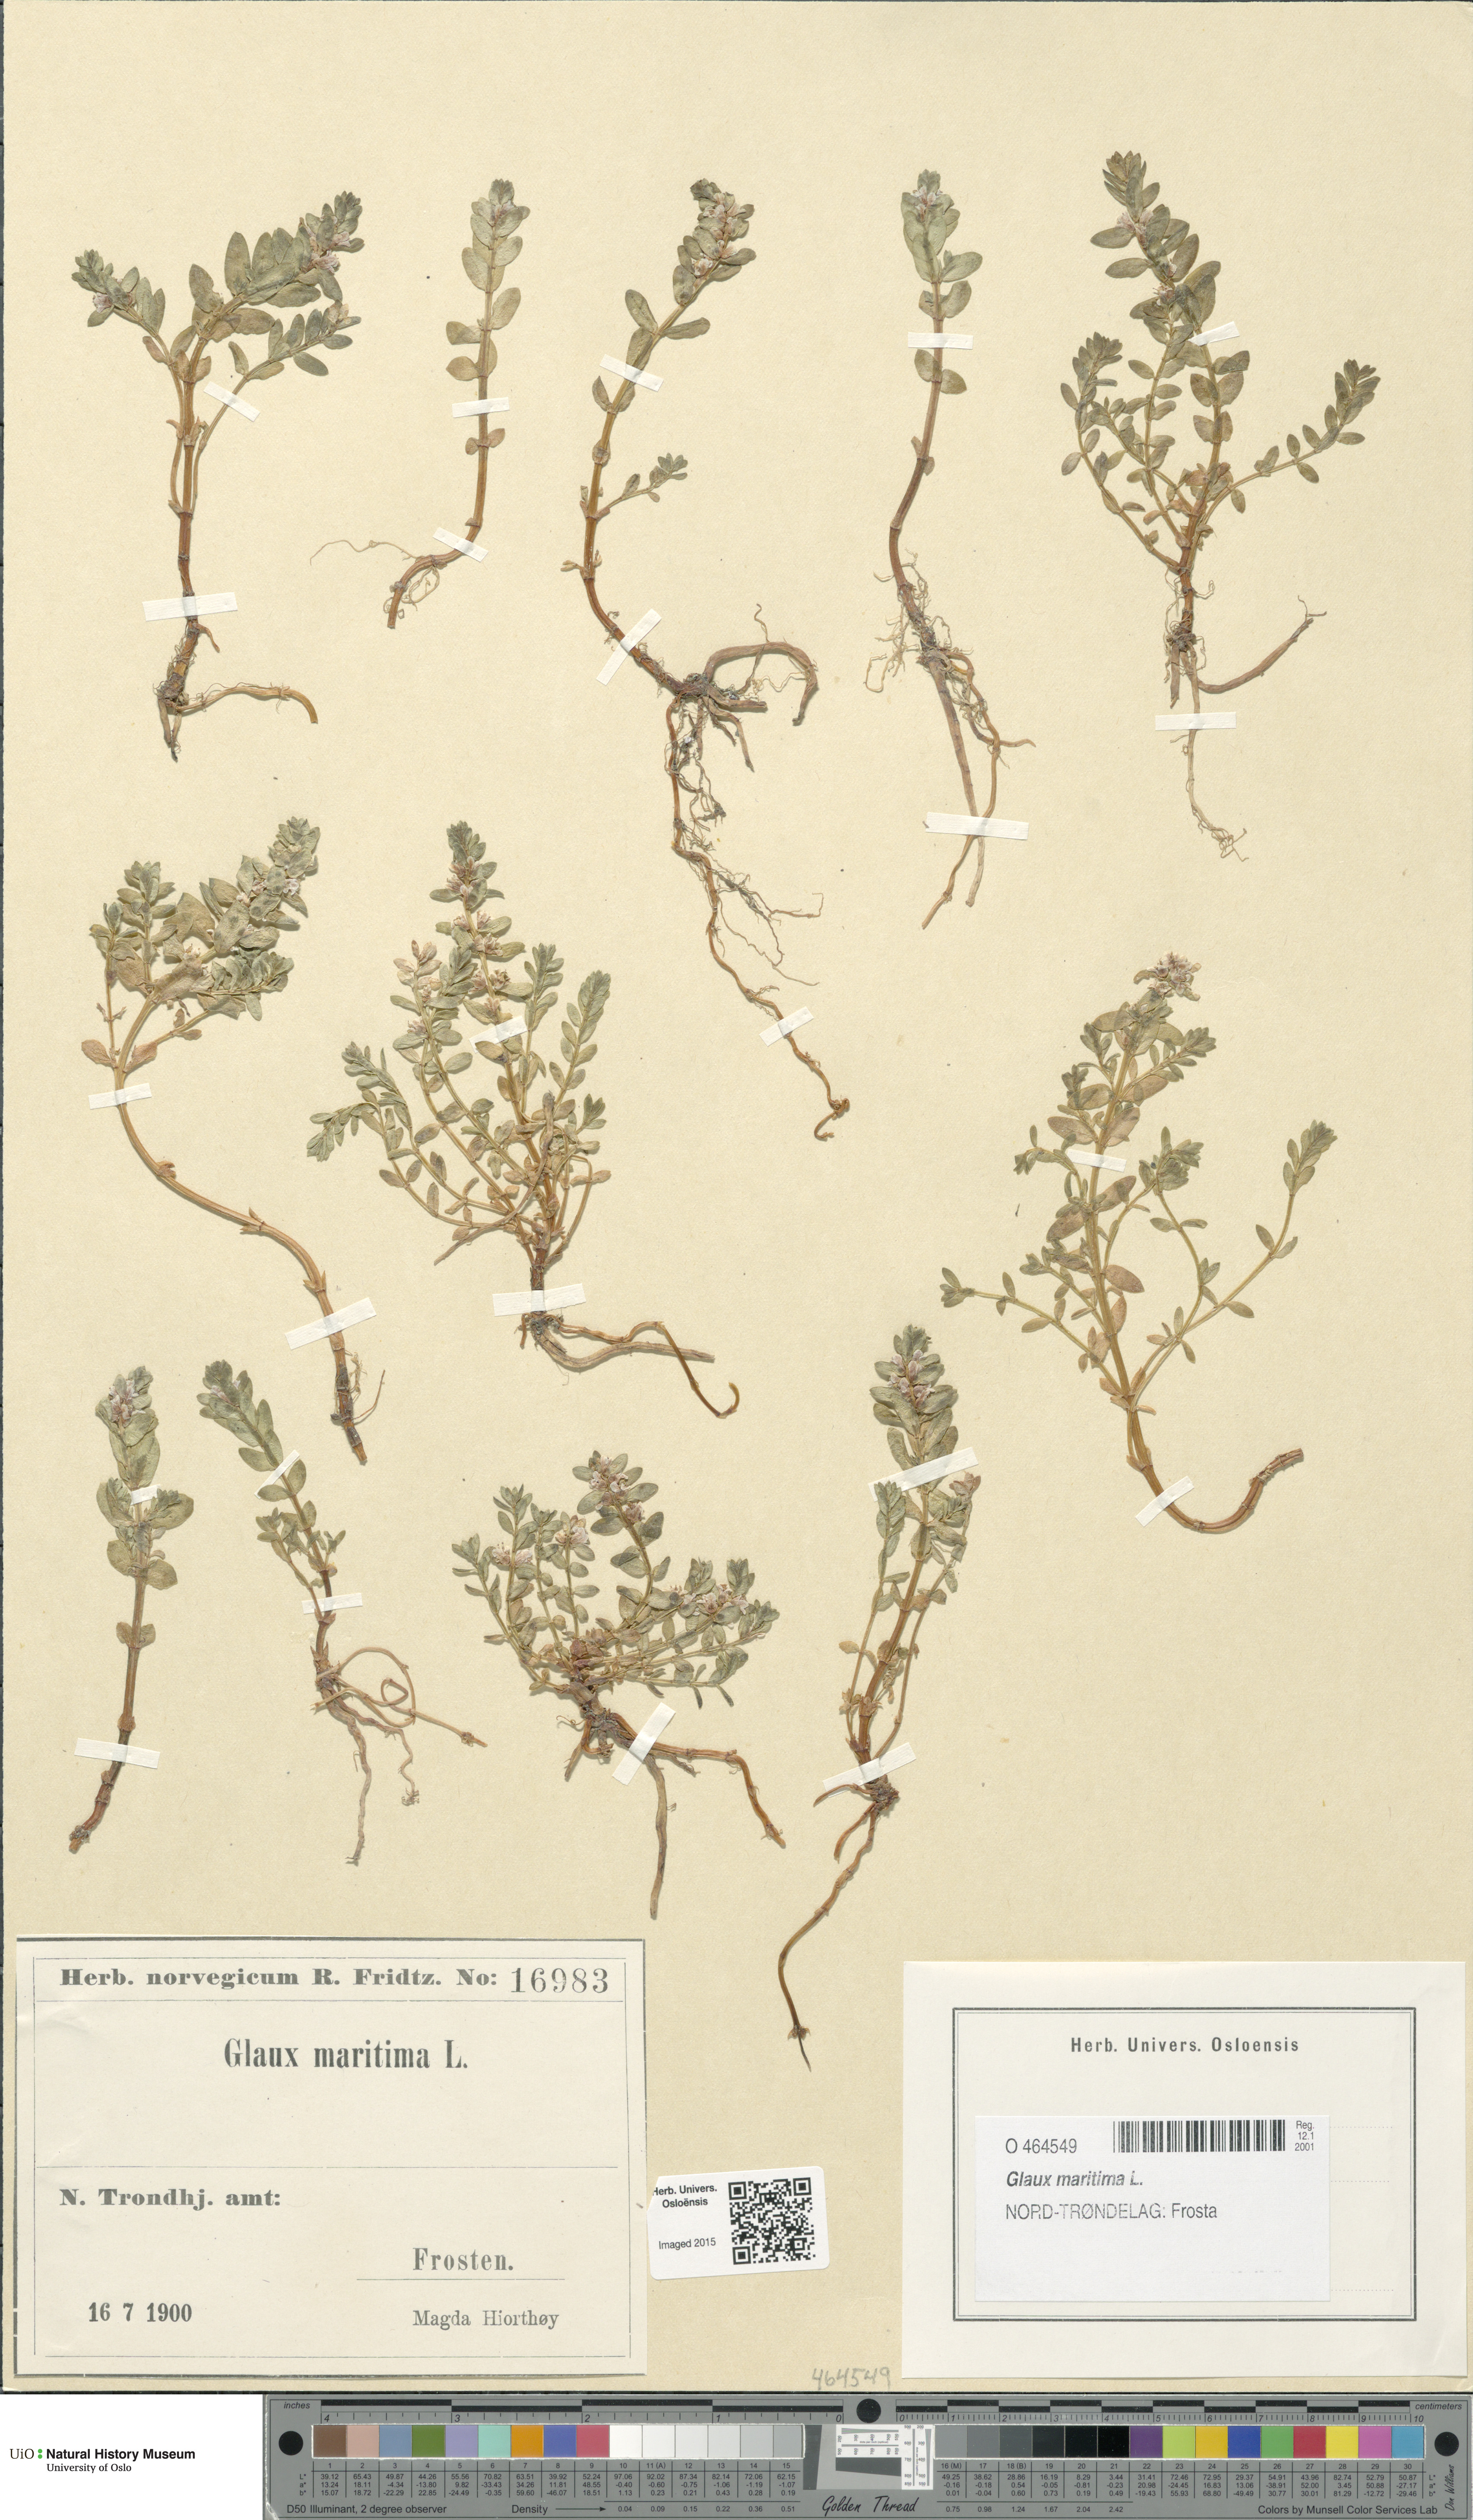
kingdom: Plantae
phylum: Tracheophyta
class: Magnoliopsida
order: Ericales
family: Primulaceae
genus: Lysimachia
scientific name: Lysimachia maritima
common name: Sea milkwort
